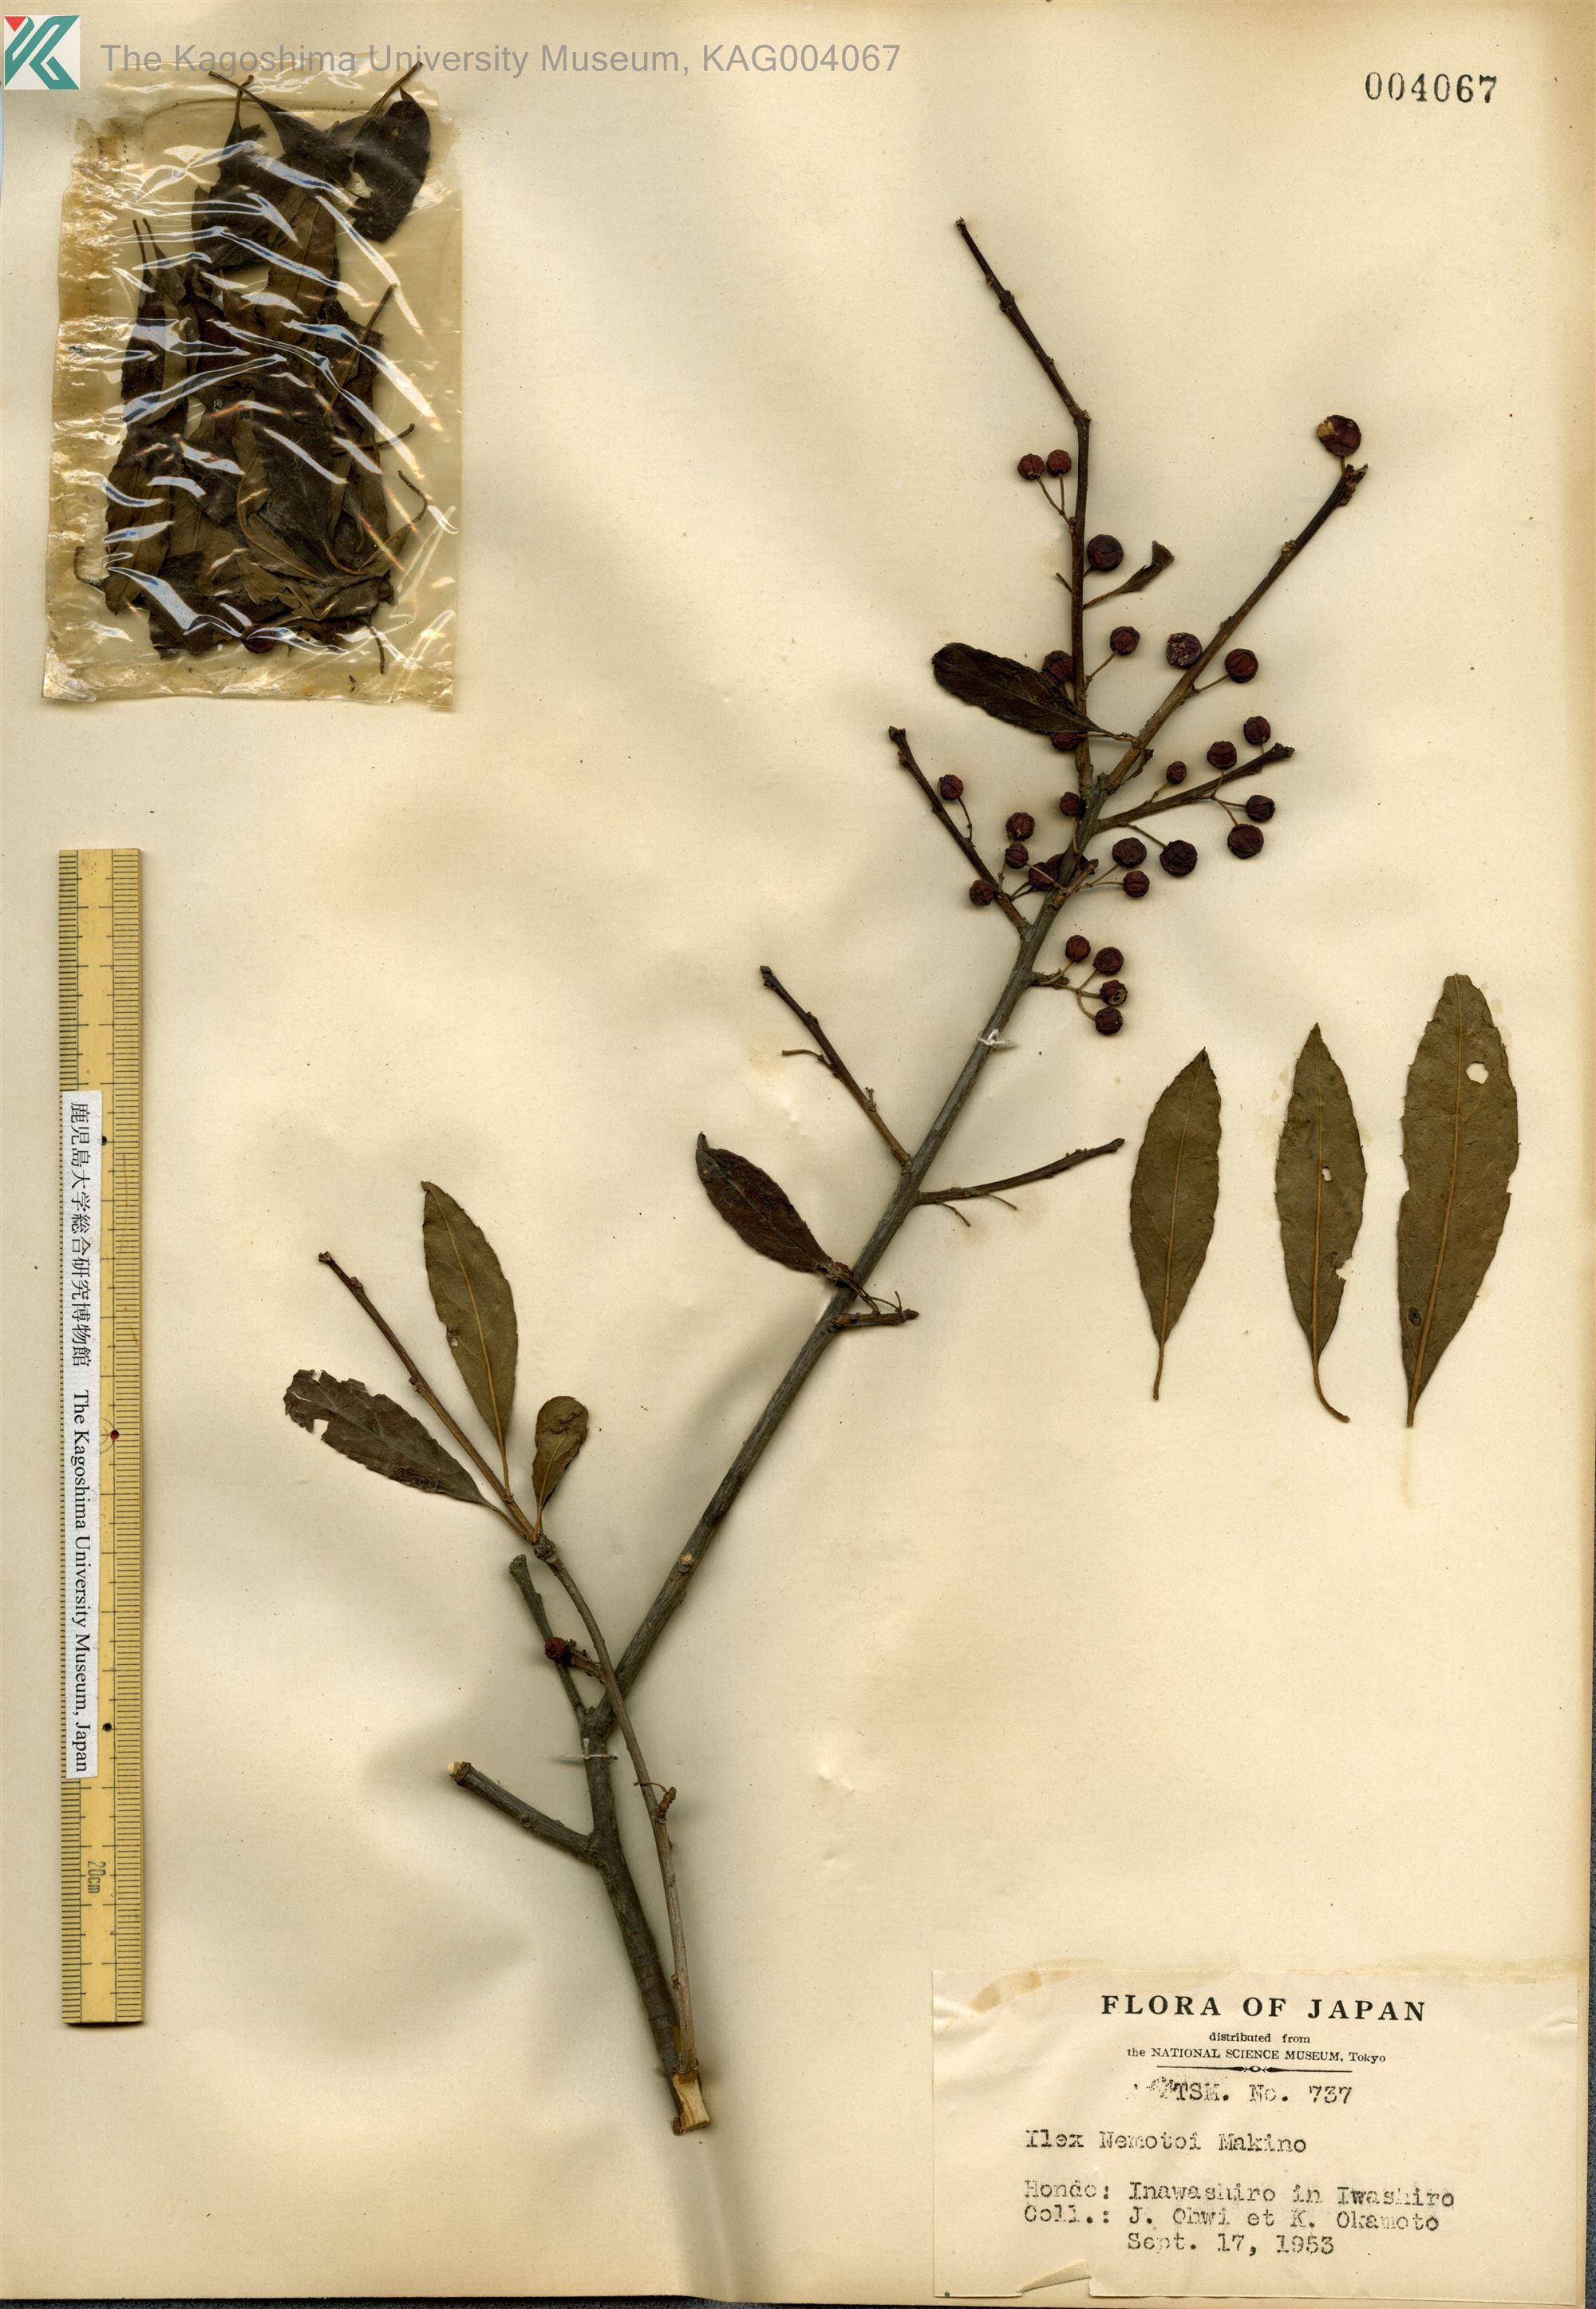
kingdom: Plantae
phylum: Tracheophyta
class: Magnoliopsida
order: Aquifoliales
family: Aquifoliaceae
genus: Ilex
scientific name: Ilex nipponica
